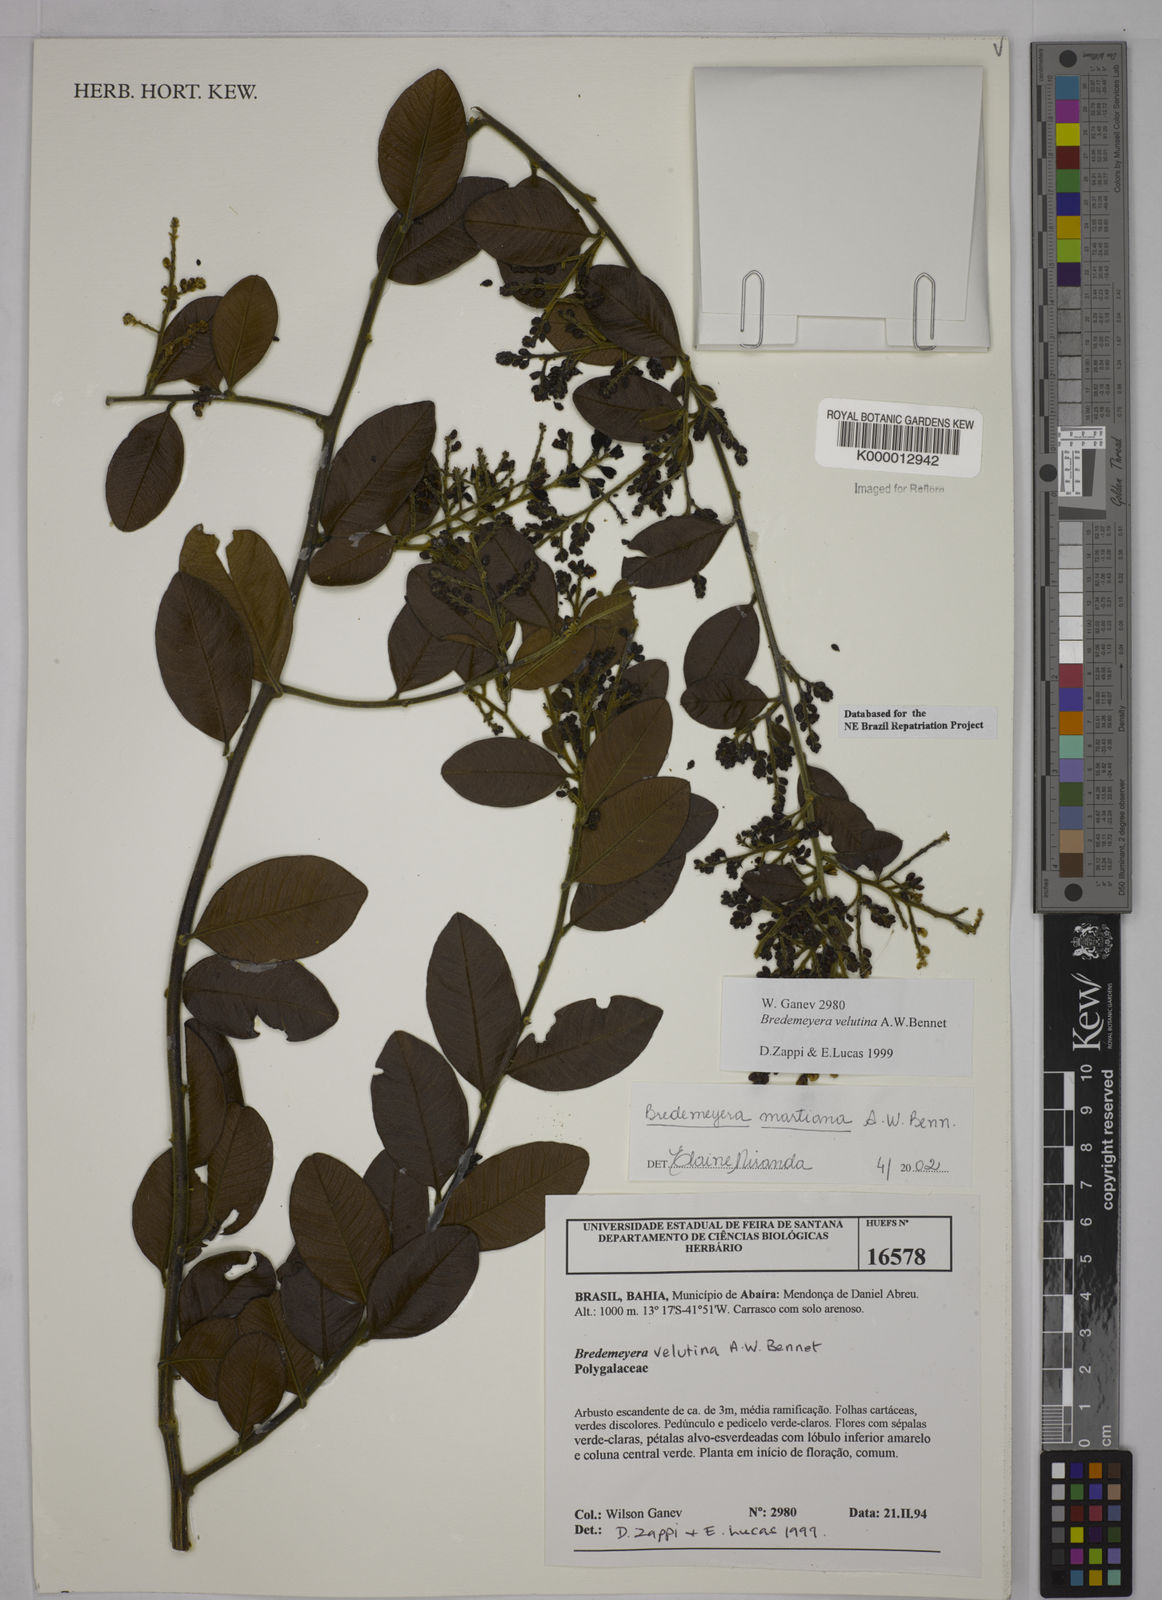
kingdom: Plantae
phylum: Tracheophyta
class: Magnoliopsida
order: Fabales
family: Polygalaceae
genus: Bredemeyera
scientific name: Bredemeyera martiana
